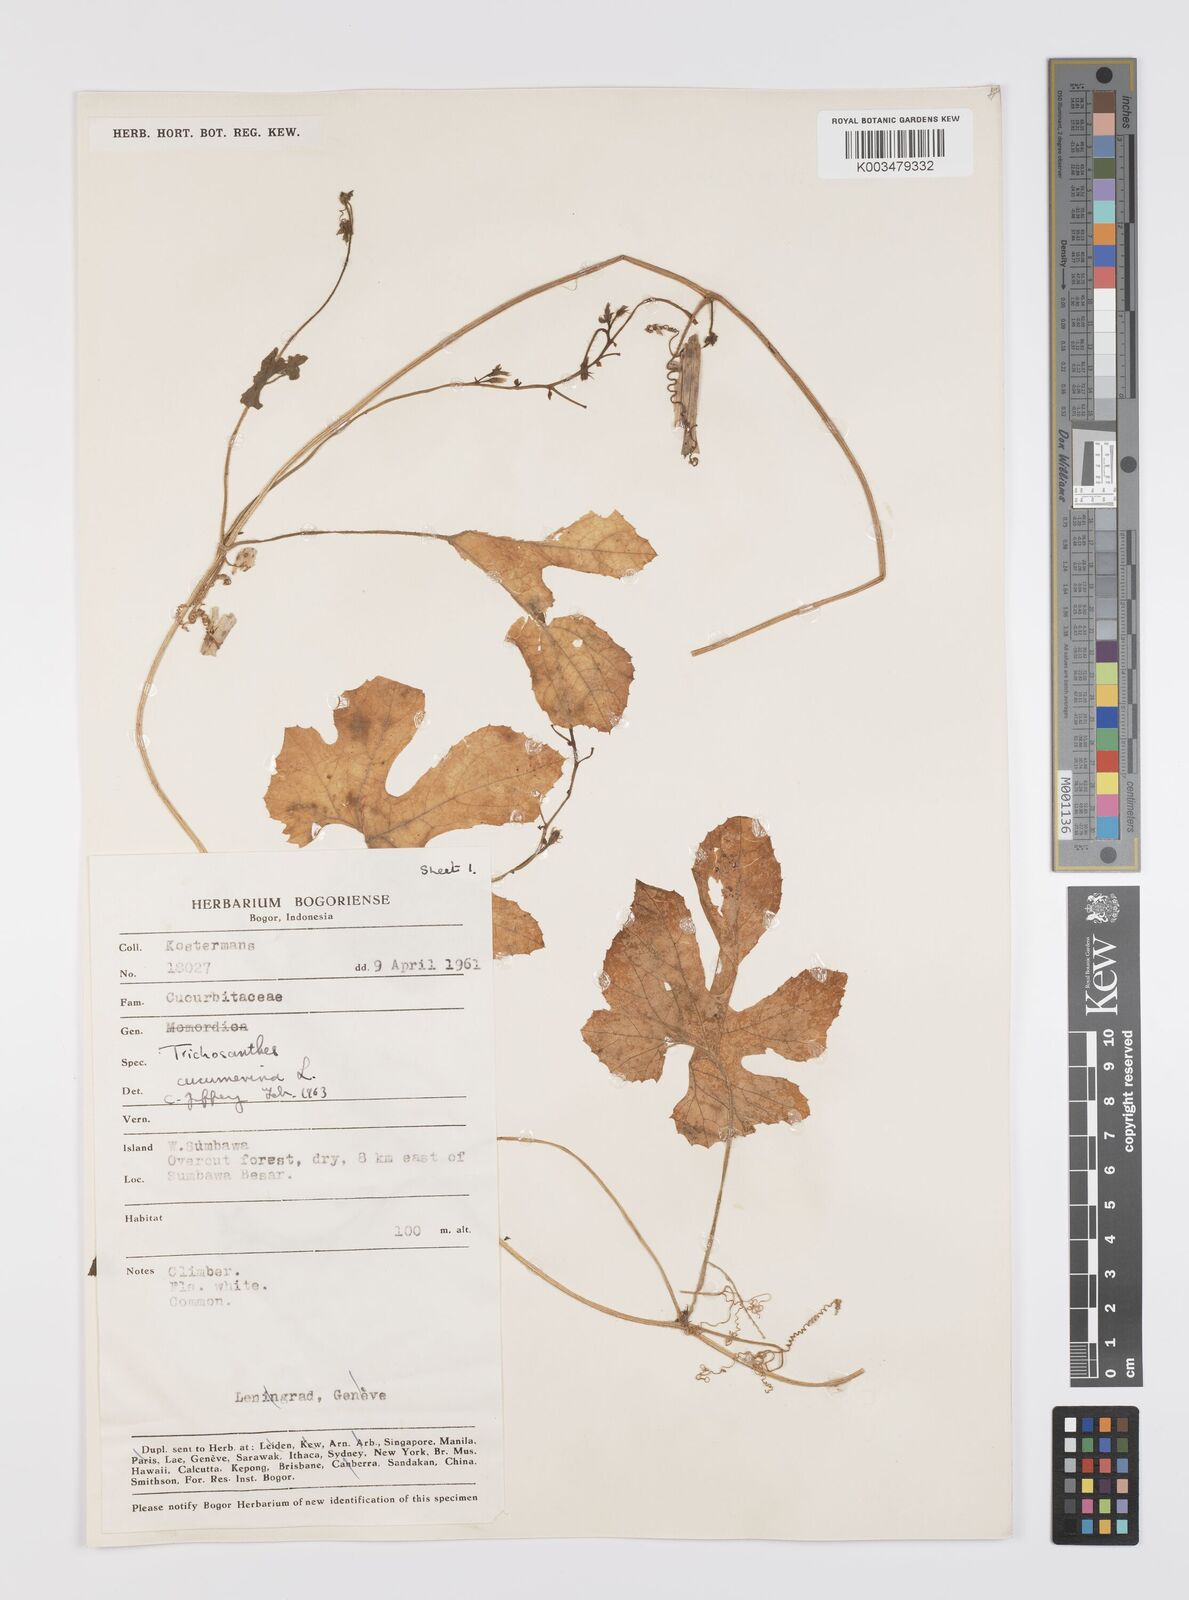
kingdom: Plantae
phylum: Tracheophyta
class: Magnoliopsida
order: Cucurbitales
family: Cucurbitaceae
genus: Trichosanthes
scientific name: Trichosanthes cucumerina
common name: Snakegourd
